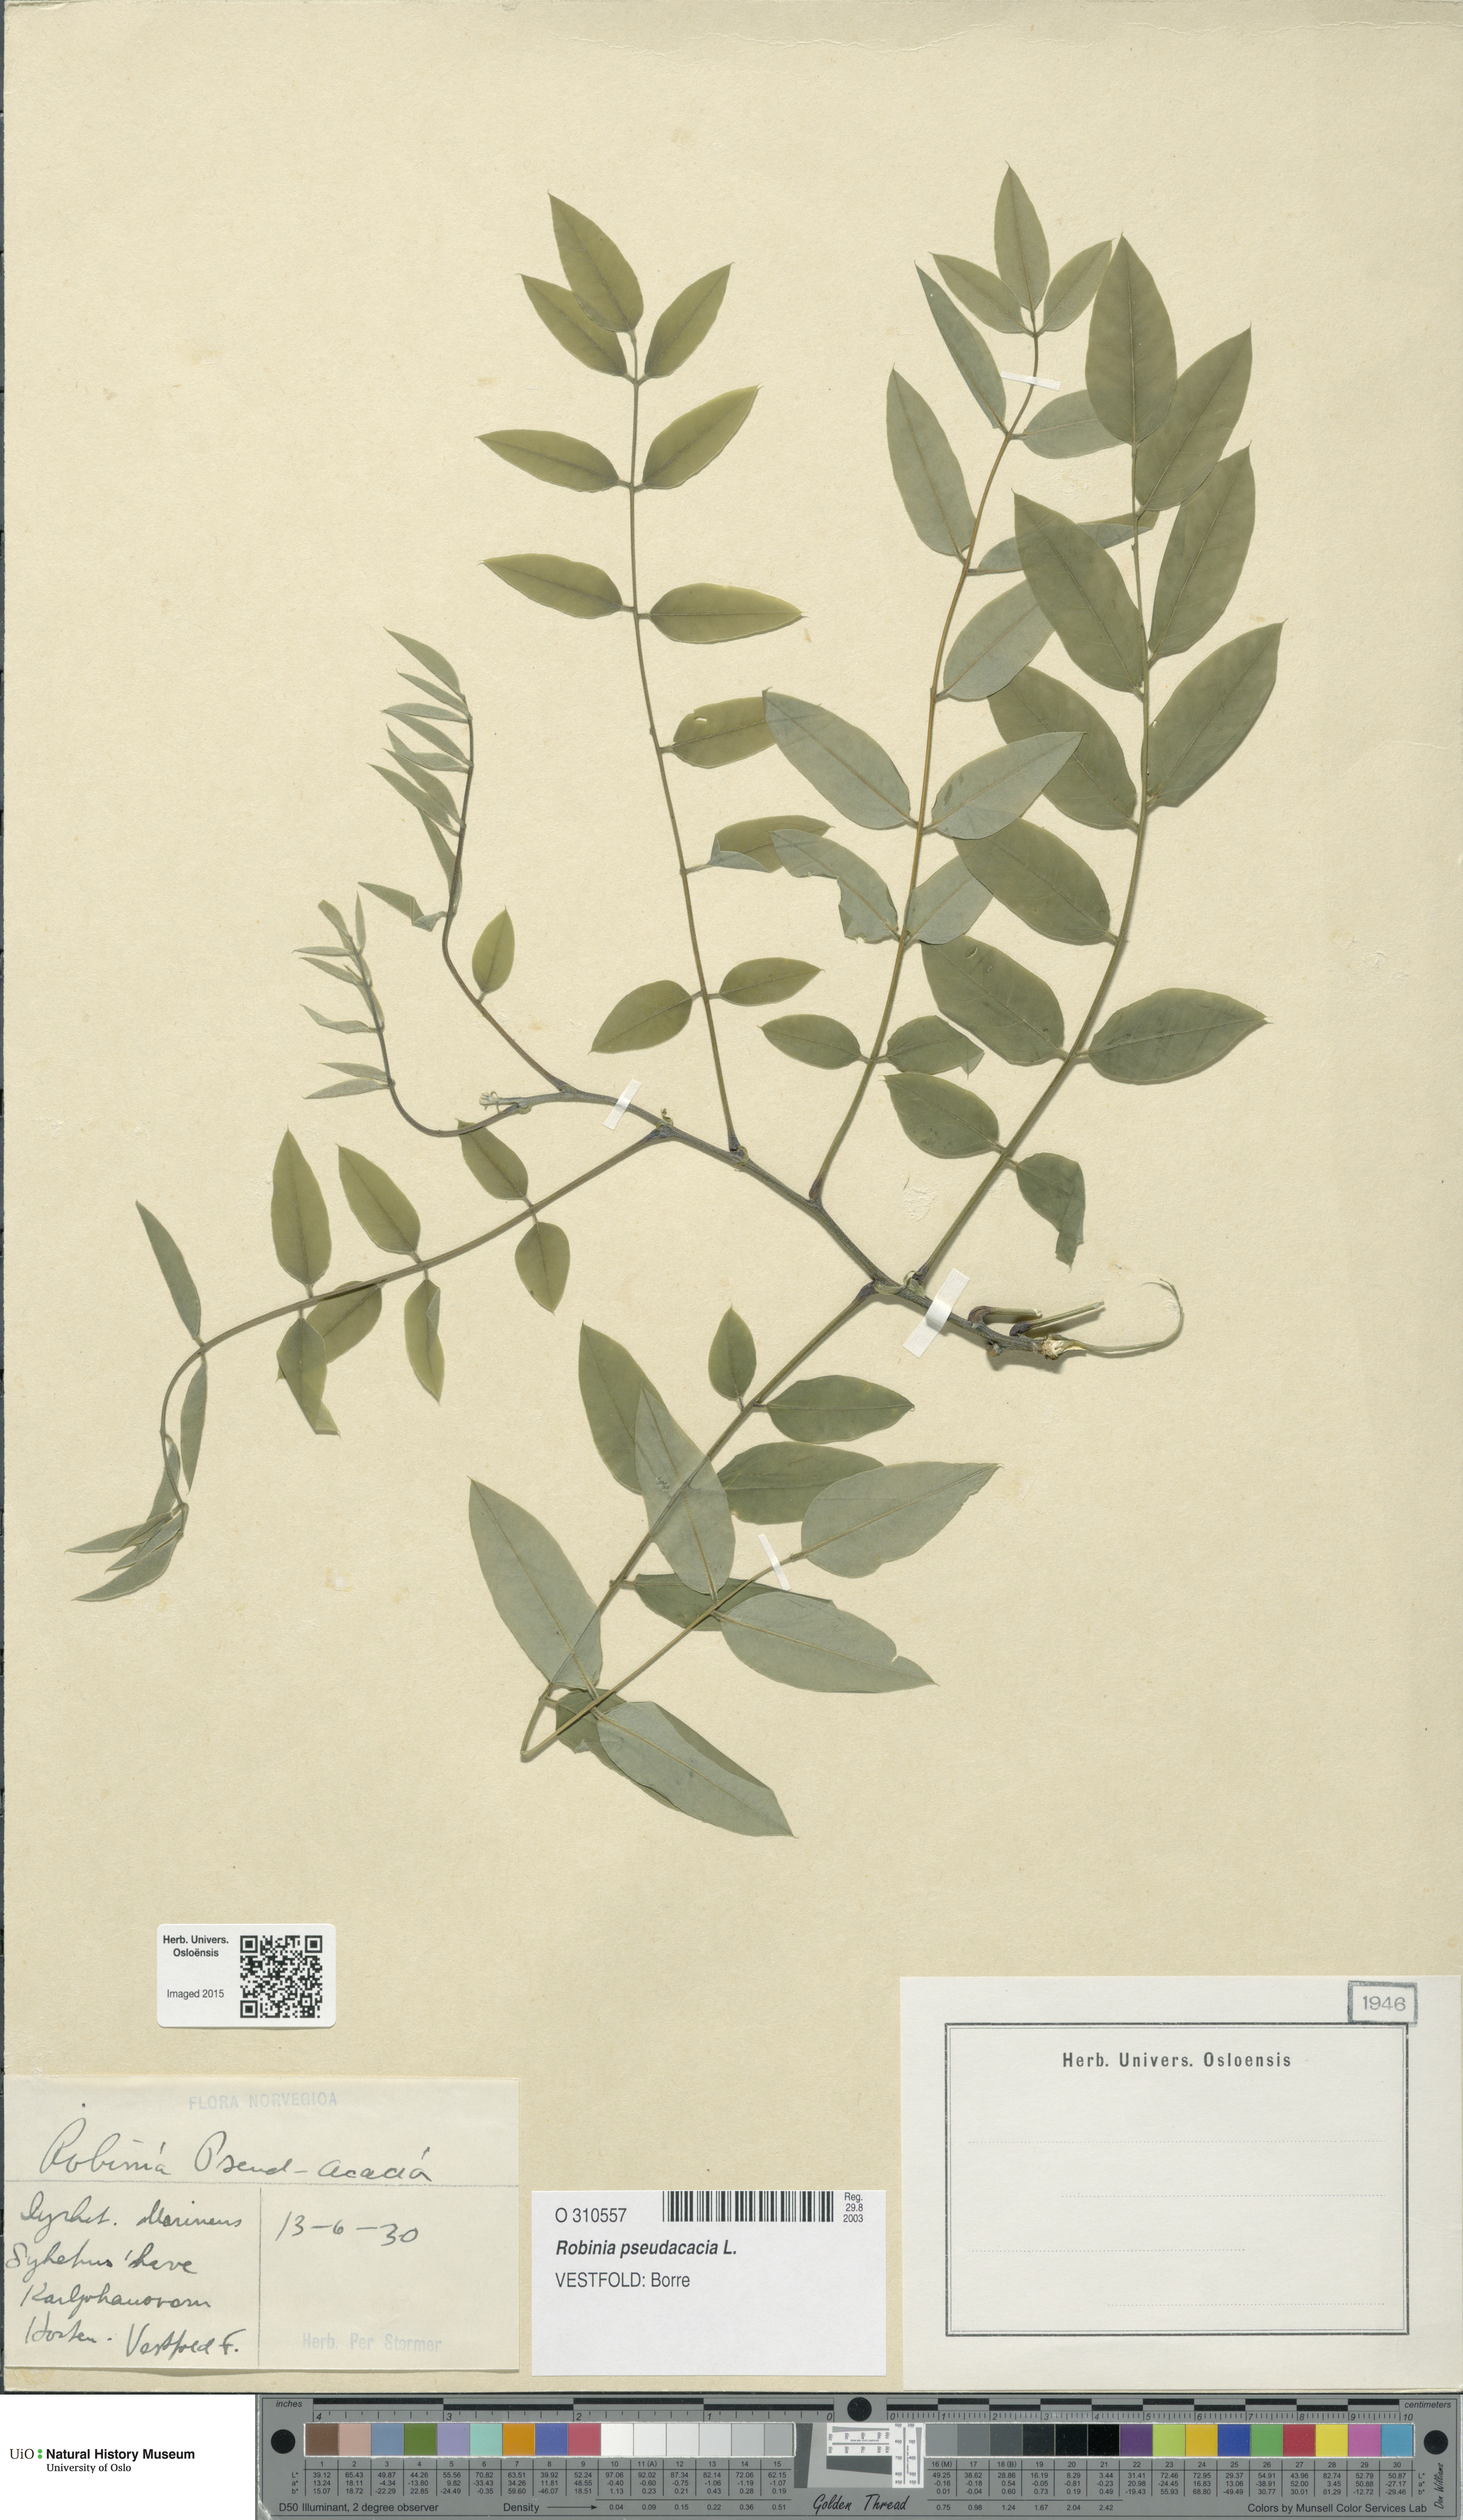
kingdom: Plantae
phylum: Tracheophyta
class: Magnoliopsida
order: Fabales
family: Fabaceae
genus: Robinia
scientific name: Robinia pseudoacacia
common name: Black locust
